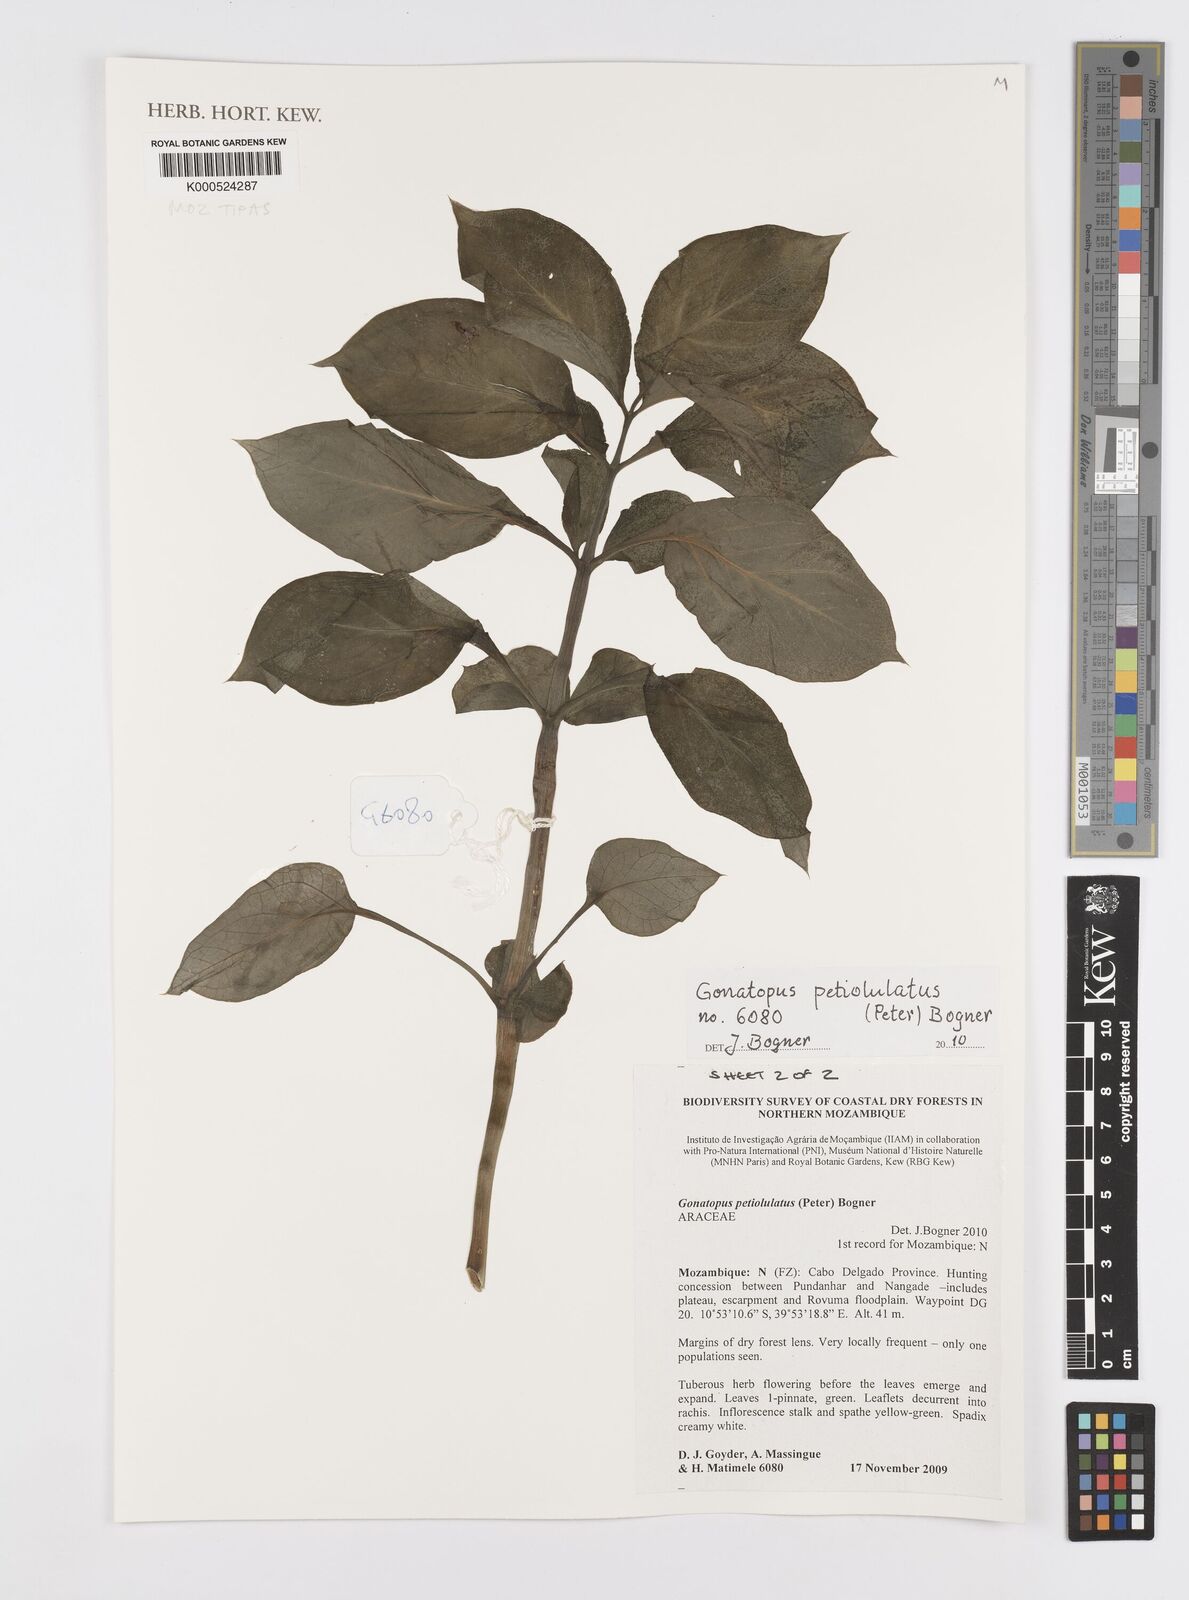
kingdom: Plantae
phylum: Tracheophyta
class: Liliopsida
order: Alismatales
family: Araceae
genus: Gonatopus
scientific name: Gonatopus petiolulatus
